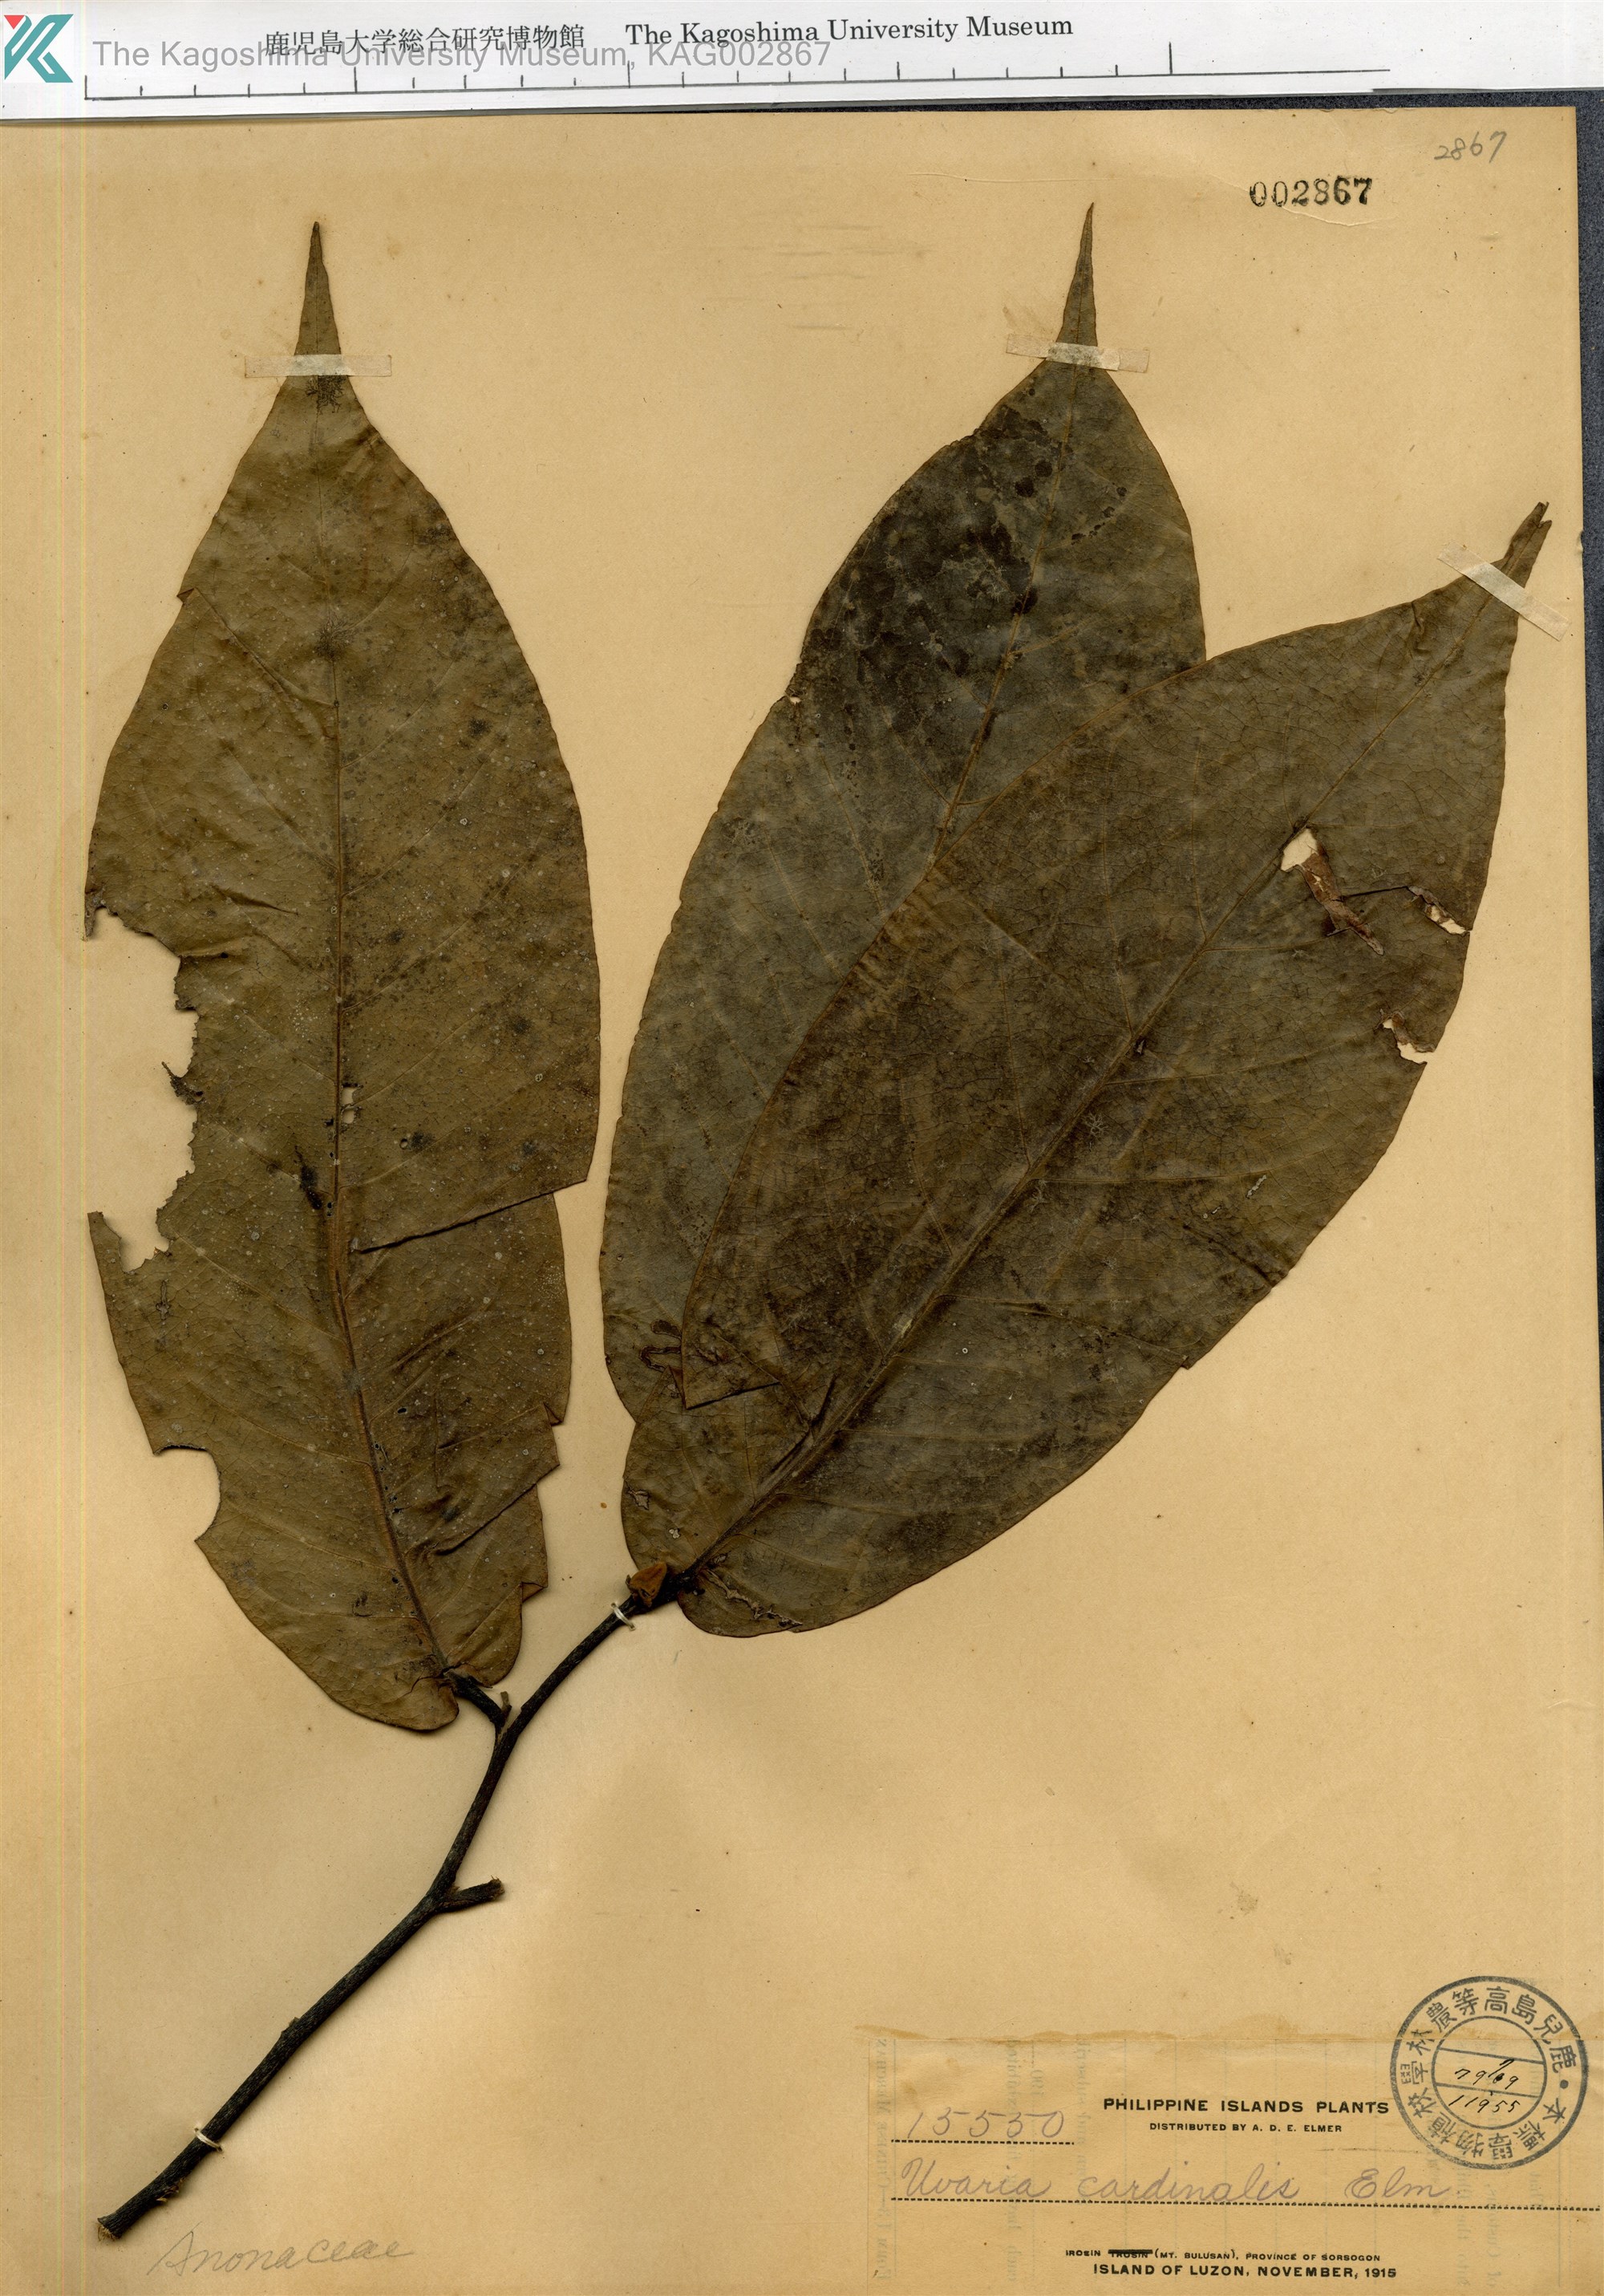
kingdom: Plantae
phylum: Tracheophyta
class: Magnoliopsida
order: Magnoliales
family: Annonaceae
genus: Uvaria
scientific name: Uvaria grandiflora
